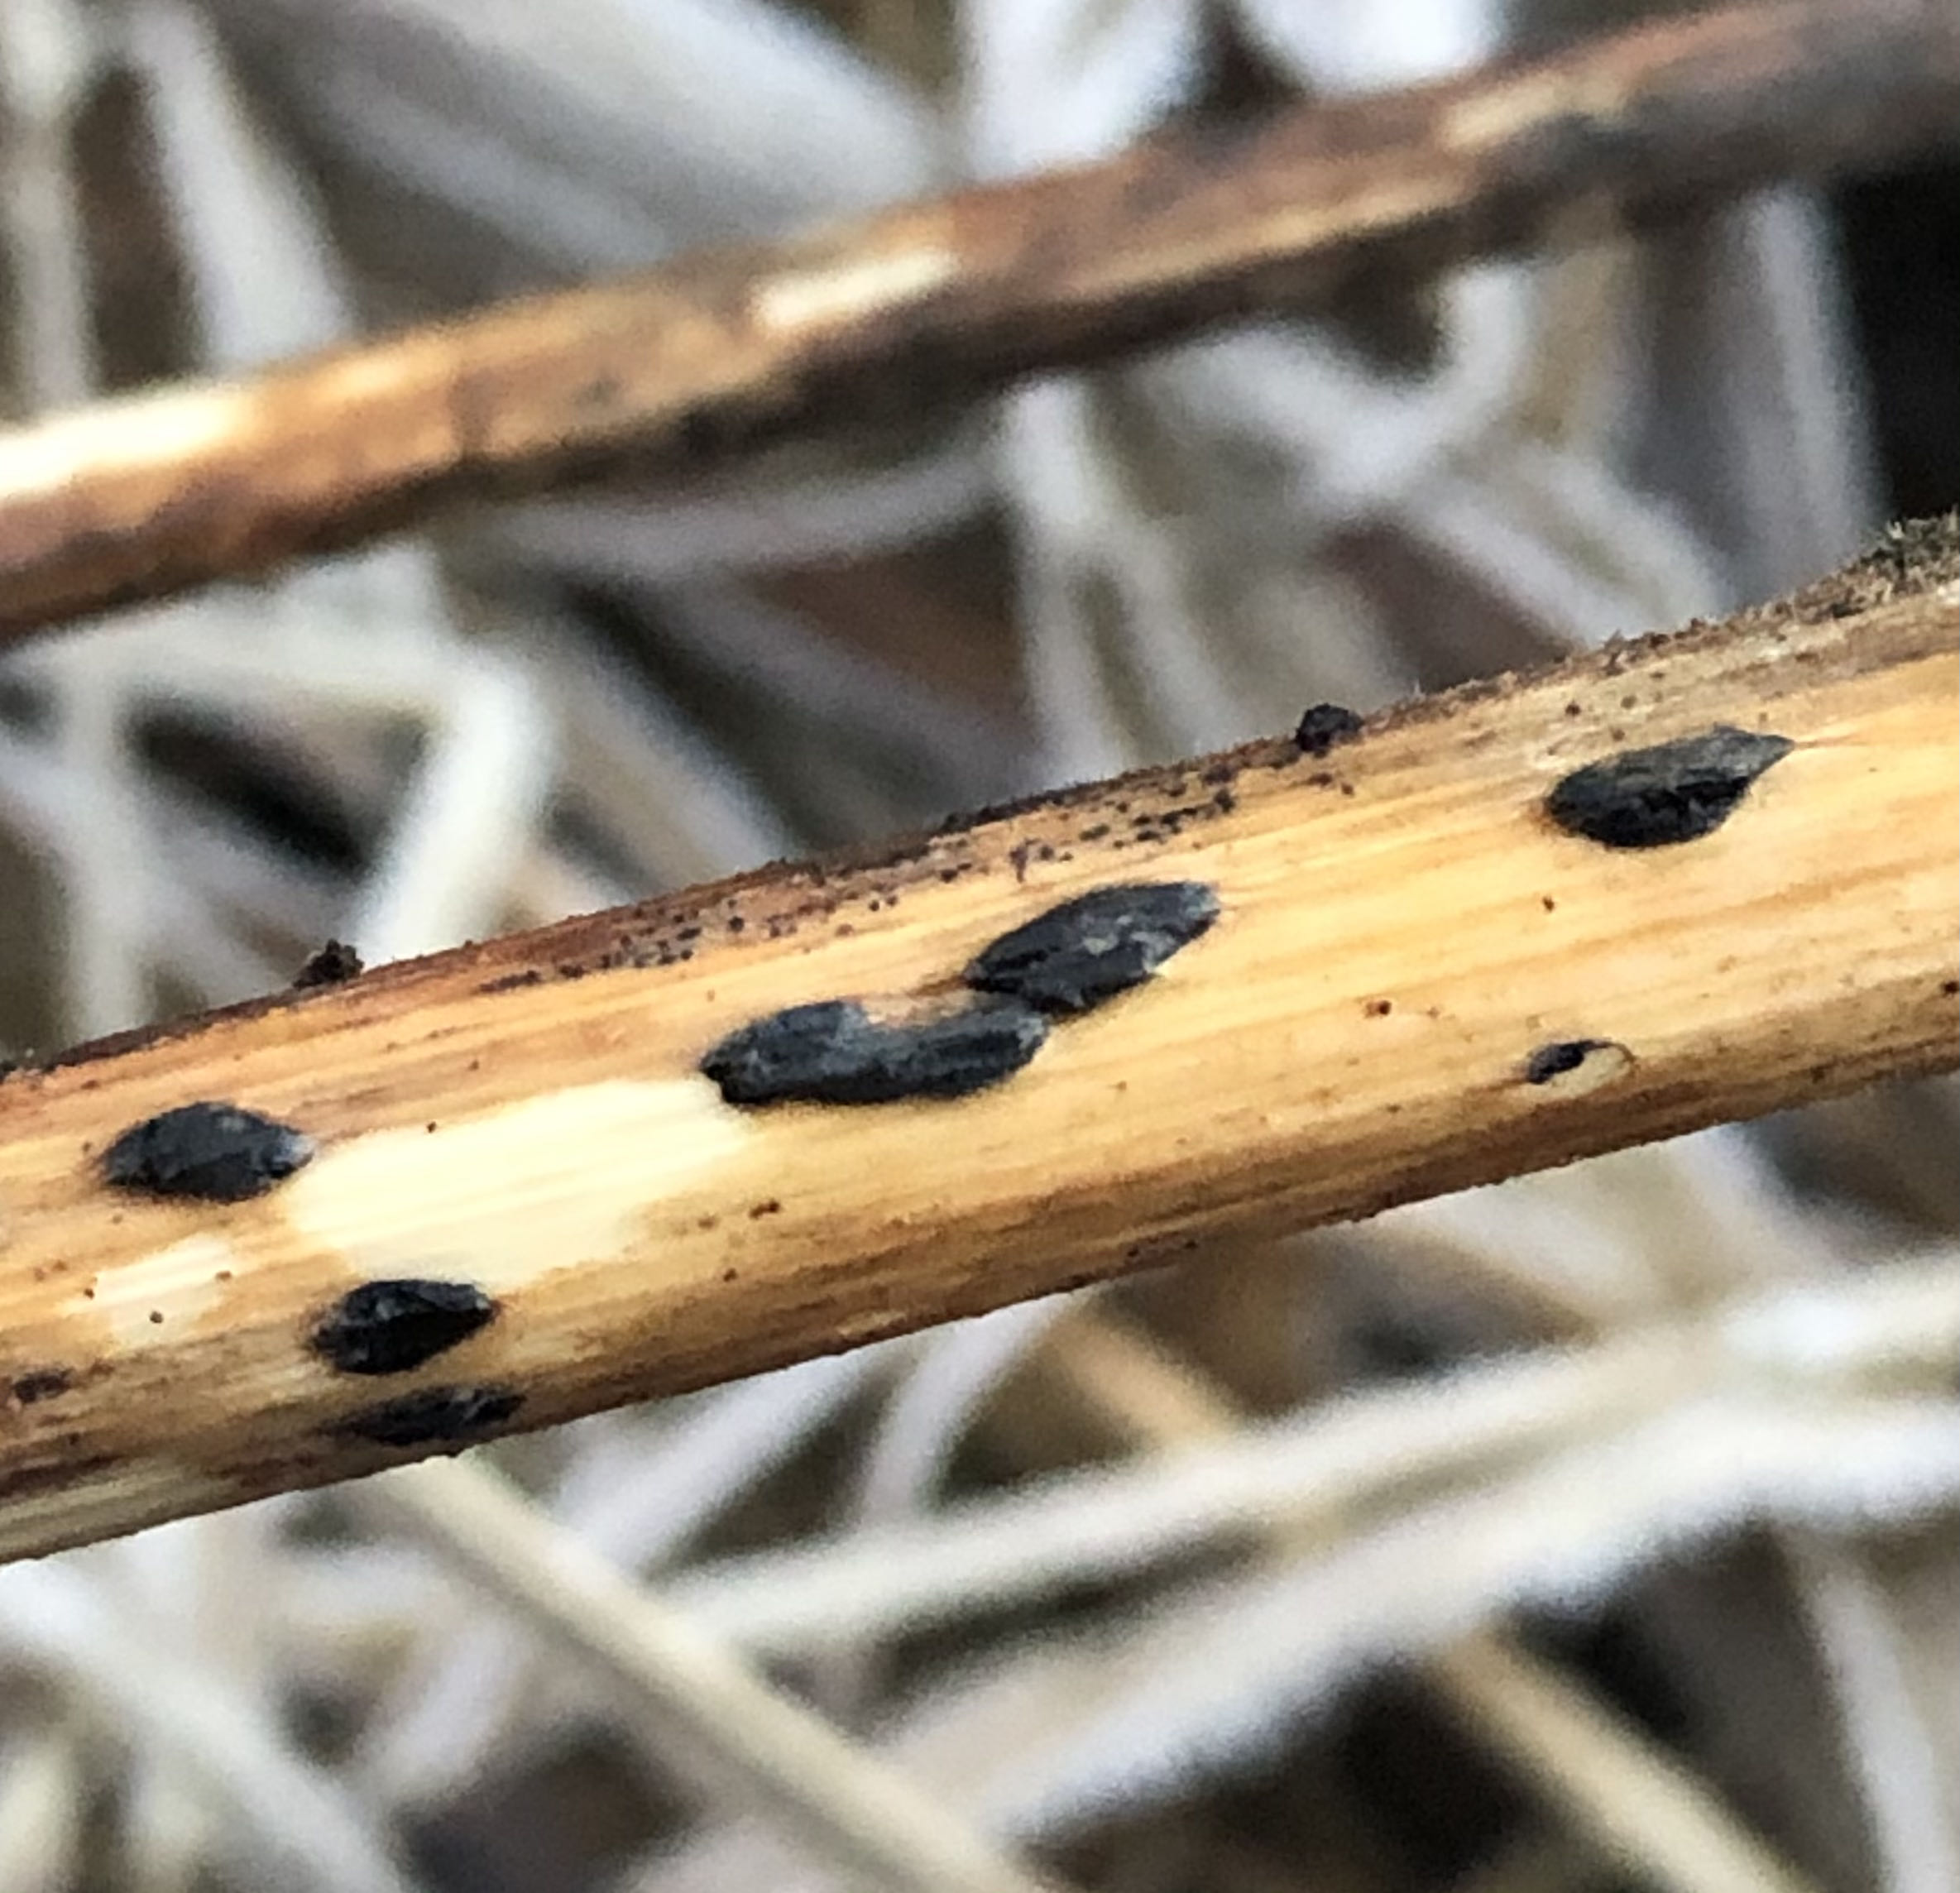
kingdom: Fungi
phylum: Ascomycota
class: Leotiomycetes
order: Rhytismatales
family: Rhytismataceae
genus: Hypoderma
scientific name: Hypoderma commune
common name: urte-fureplet
